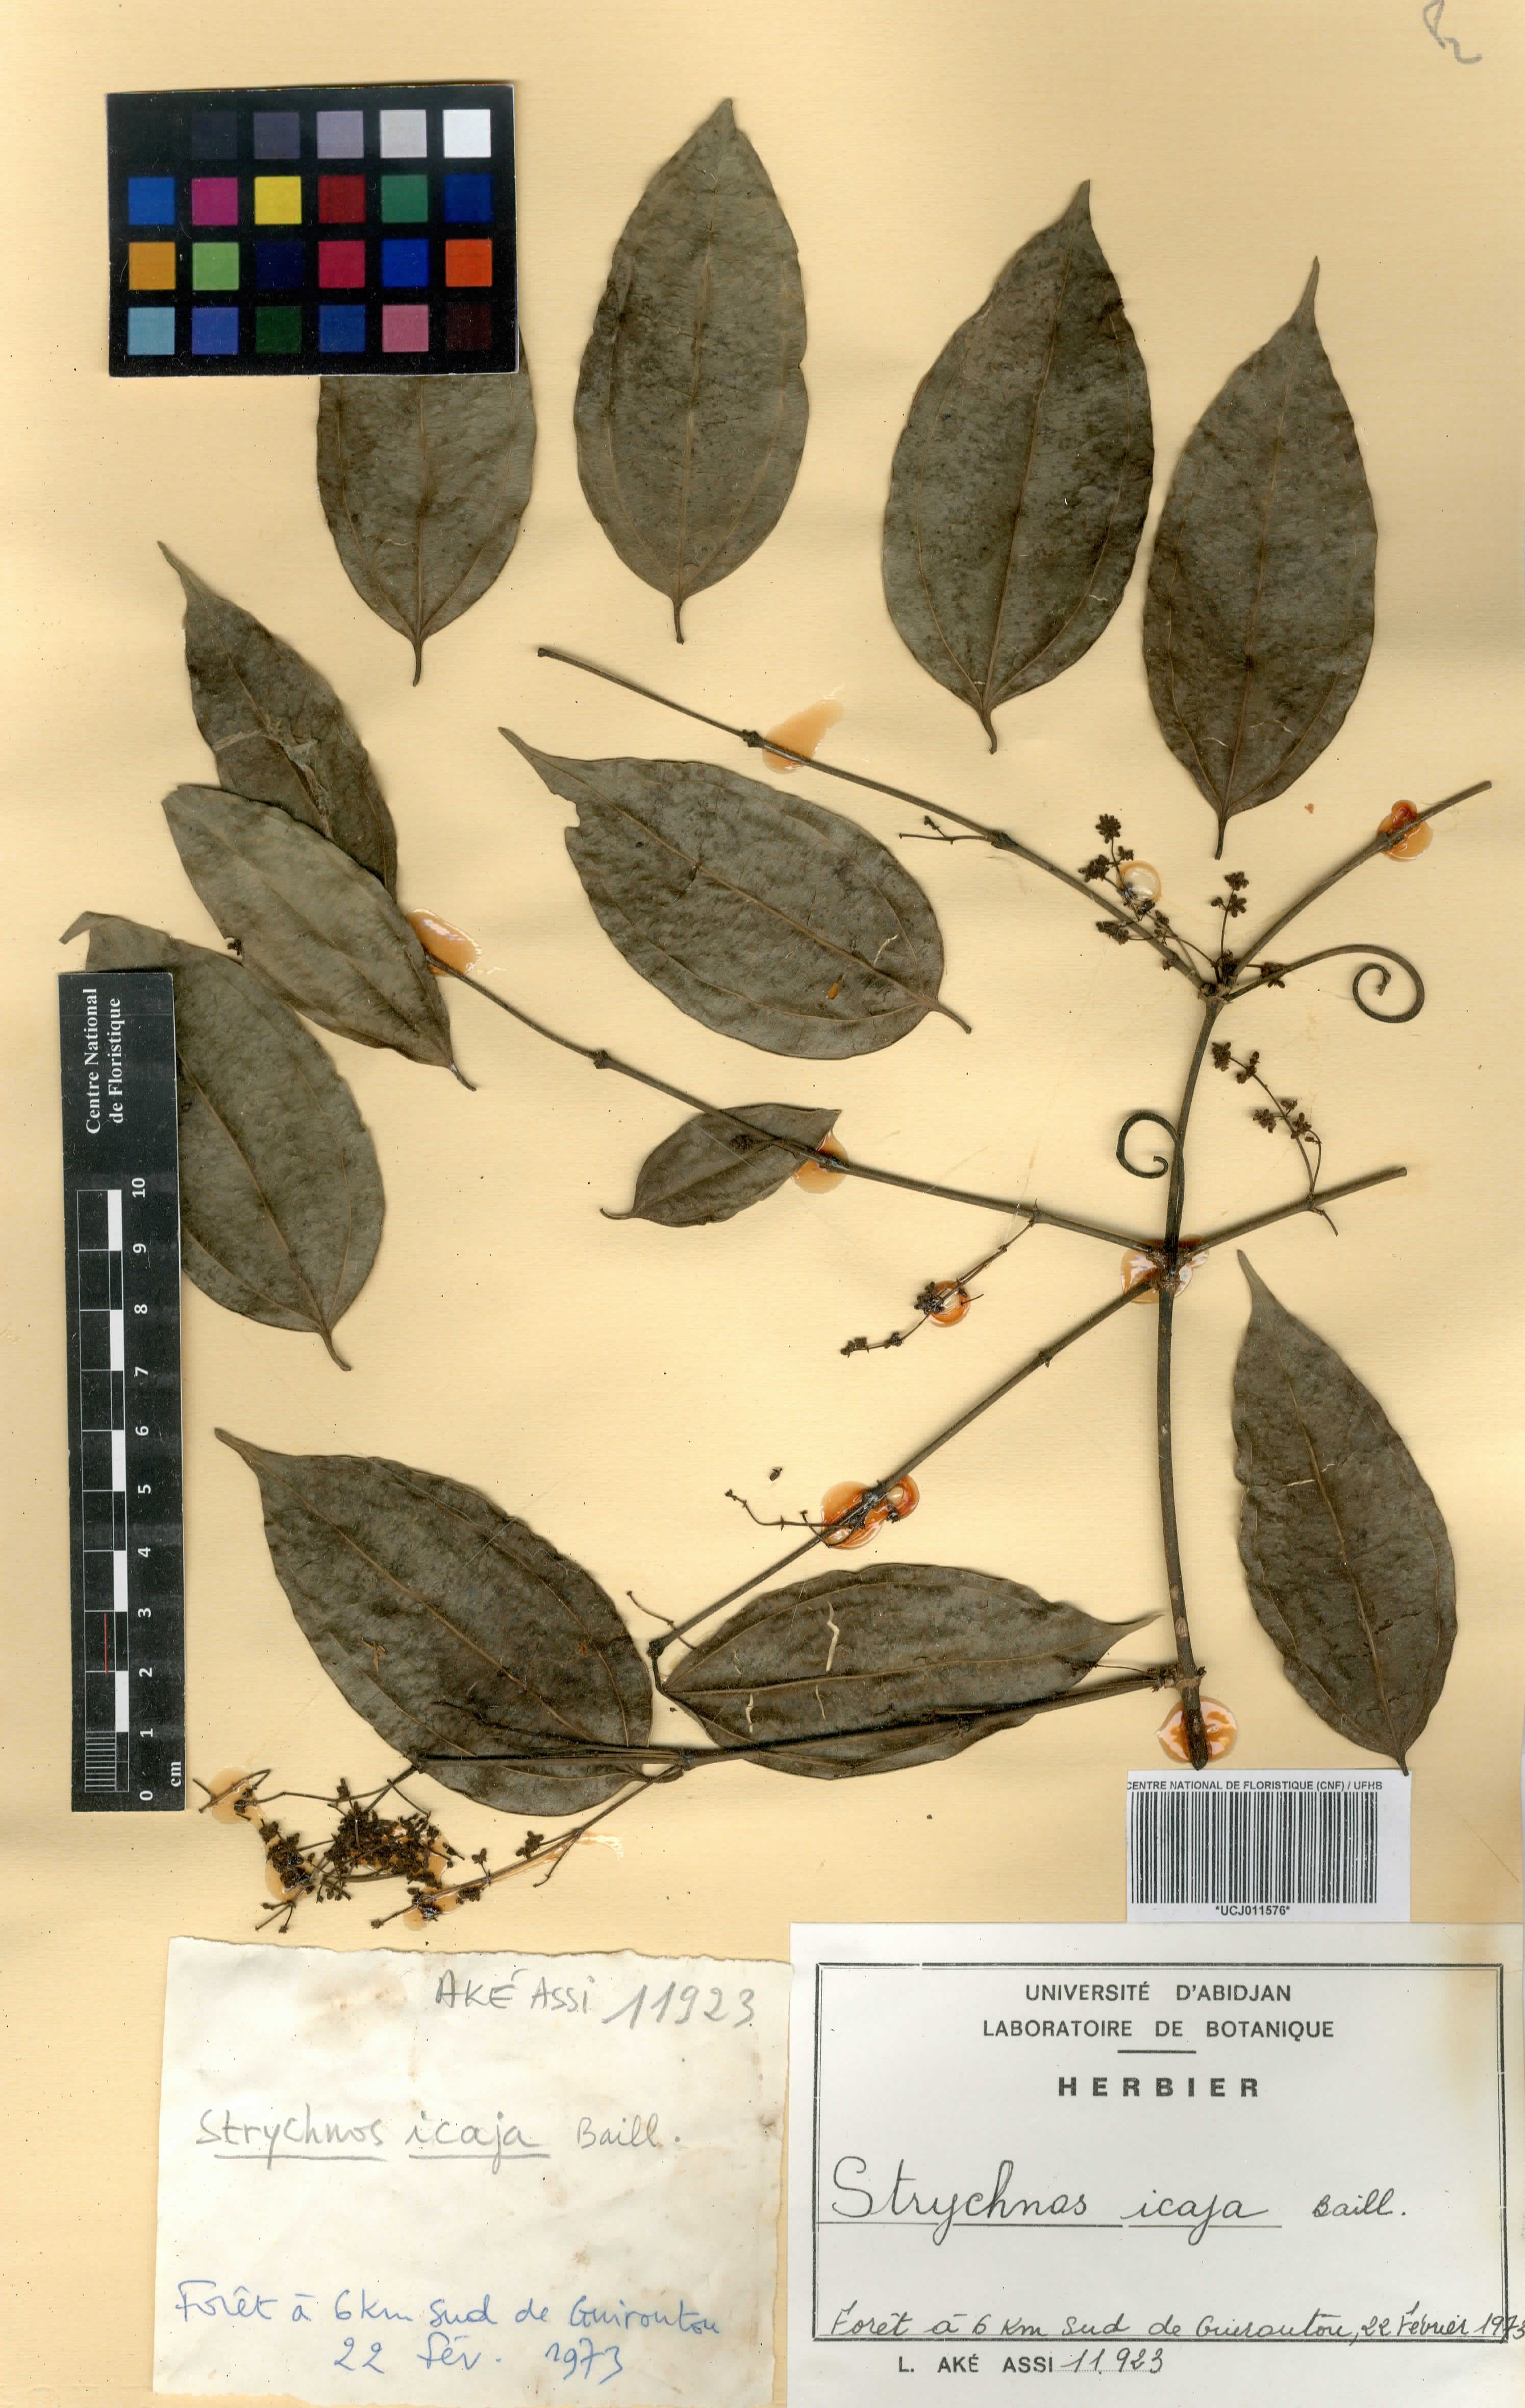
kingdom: Plantae
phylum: Tracheophyta
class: Magnoliopsida
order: Gentianales
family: Loganiaceae
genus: Strychnos
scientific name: Strychnos icaja
